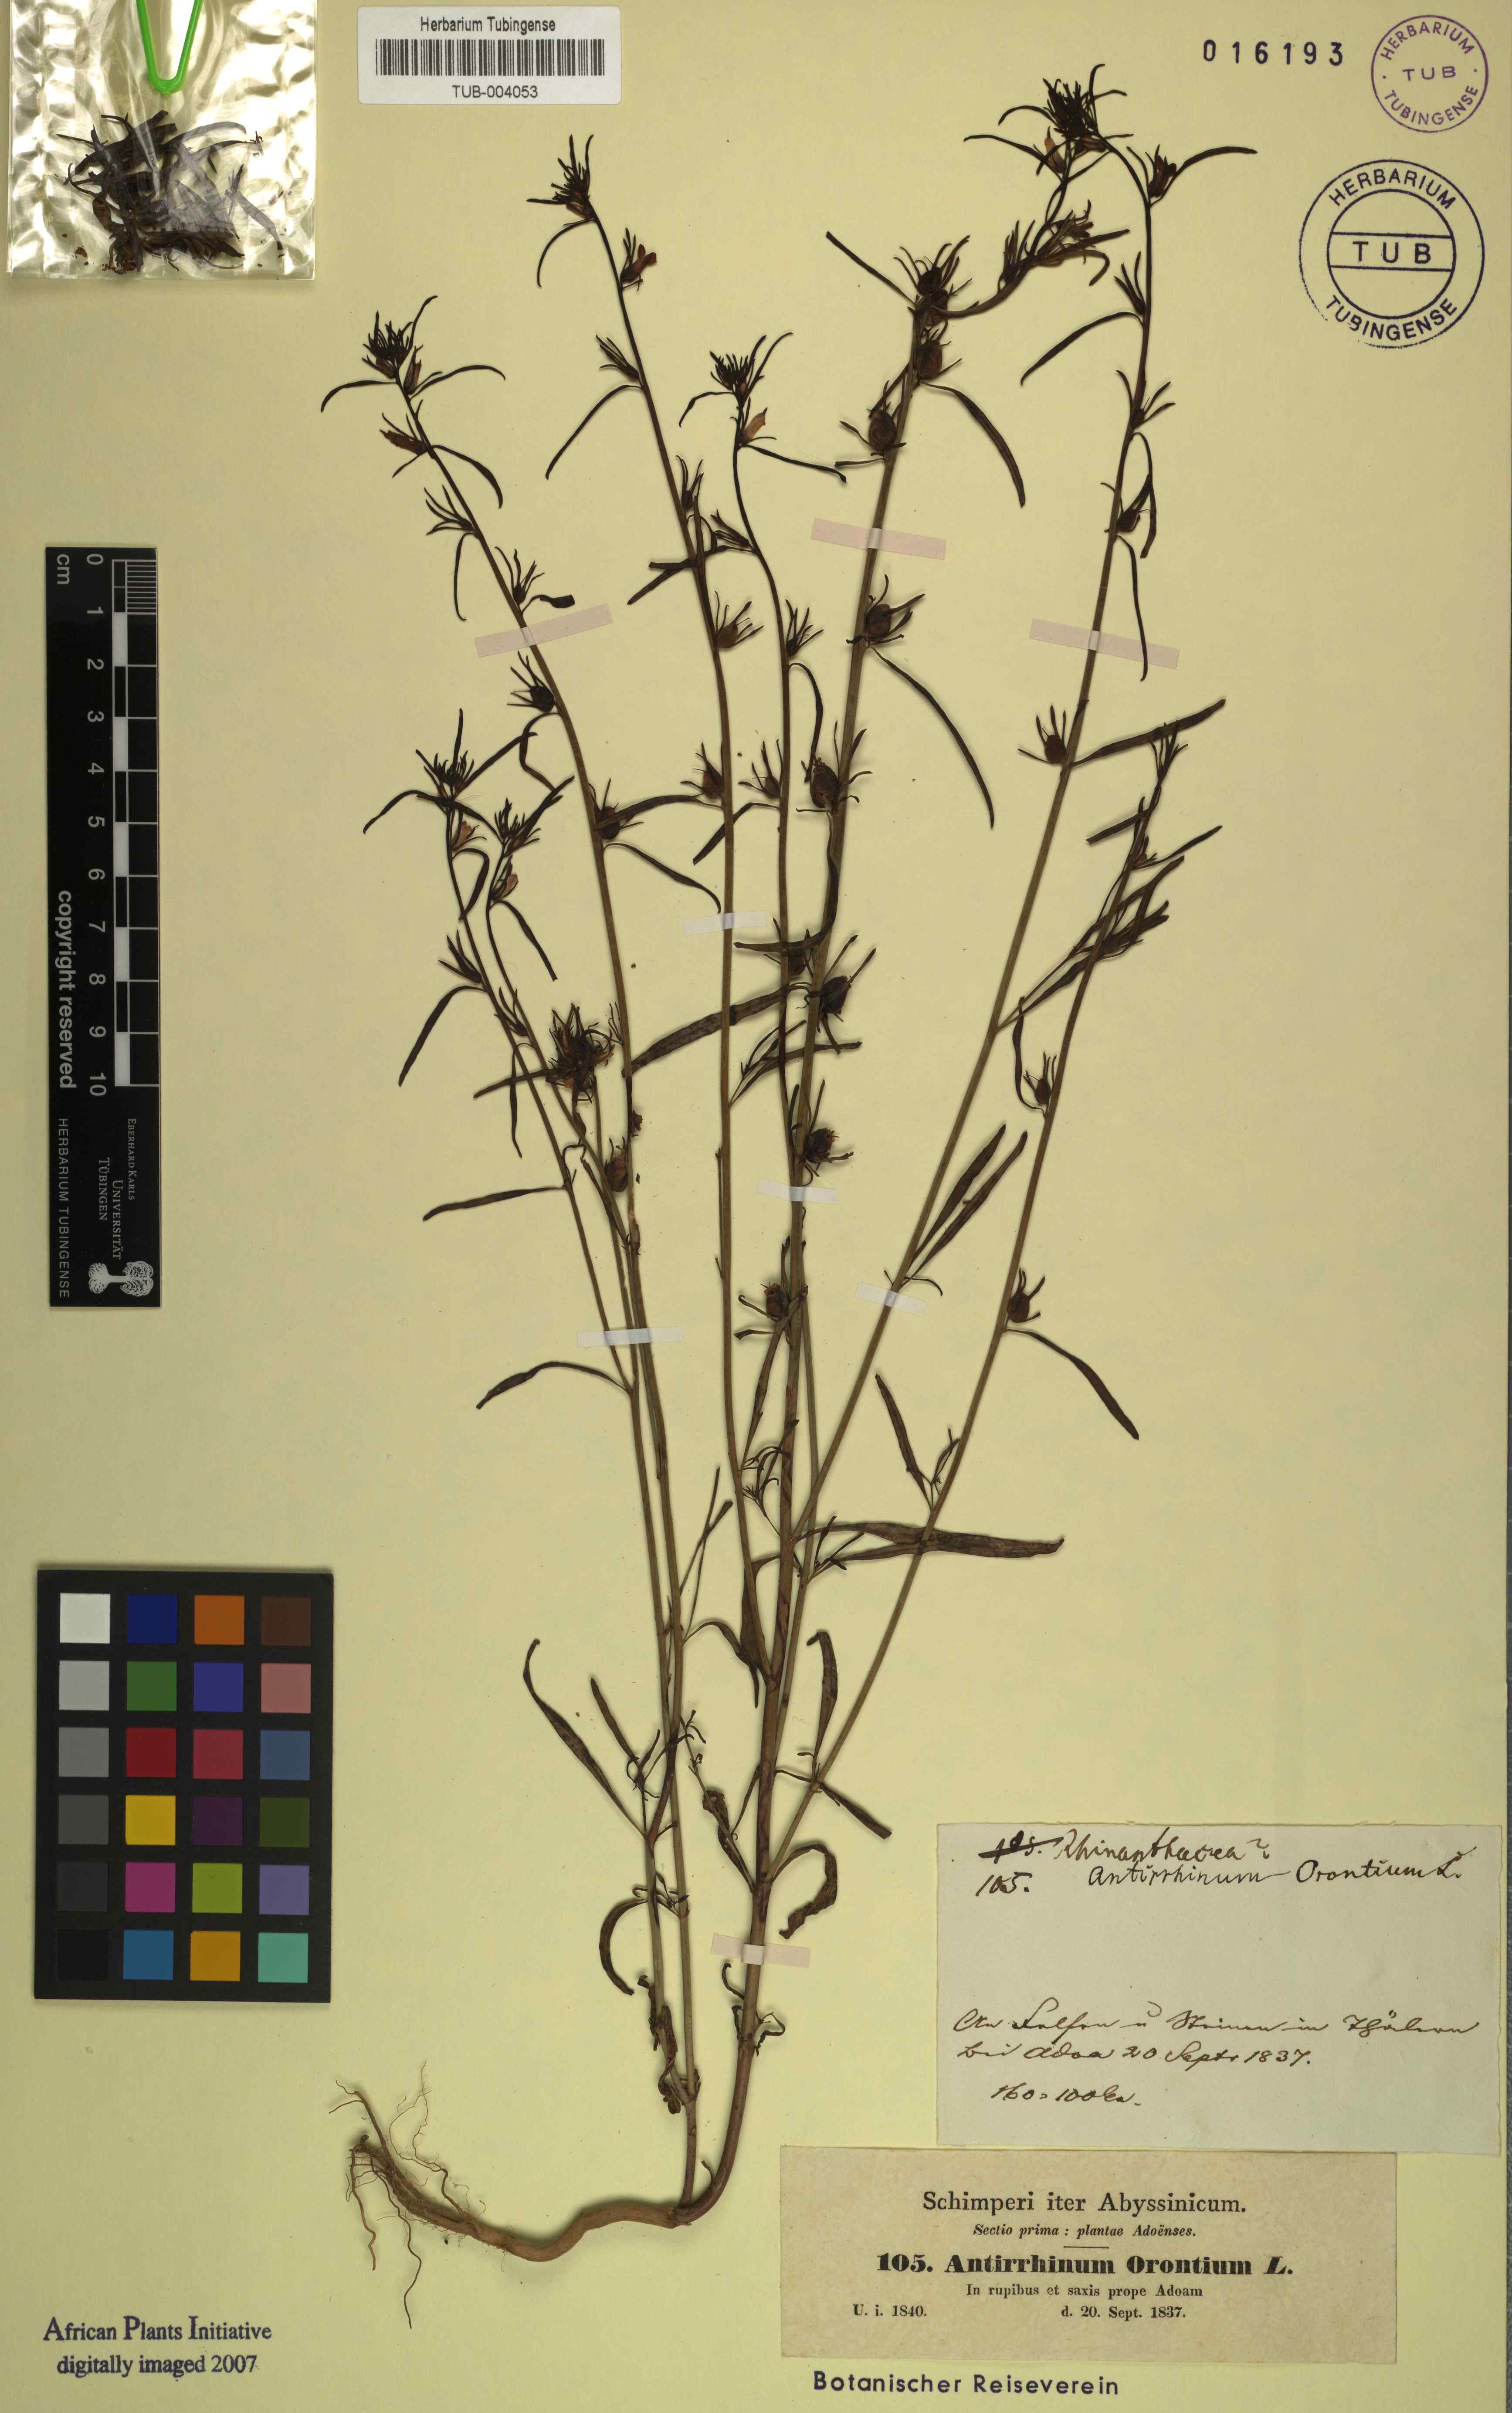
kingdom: Plantae
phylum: Tracheophyta
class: Magnoliopsida
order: Lamiales
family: Plantaginaceae
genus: Misopates
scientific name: Misopates orontium
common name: Weasel's-snout
